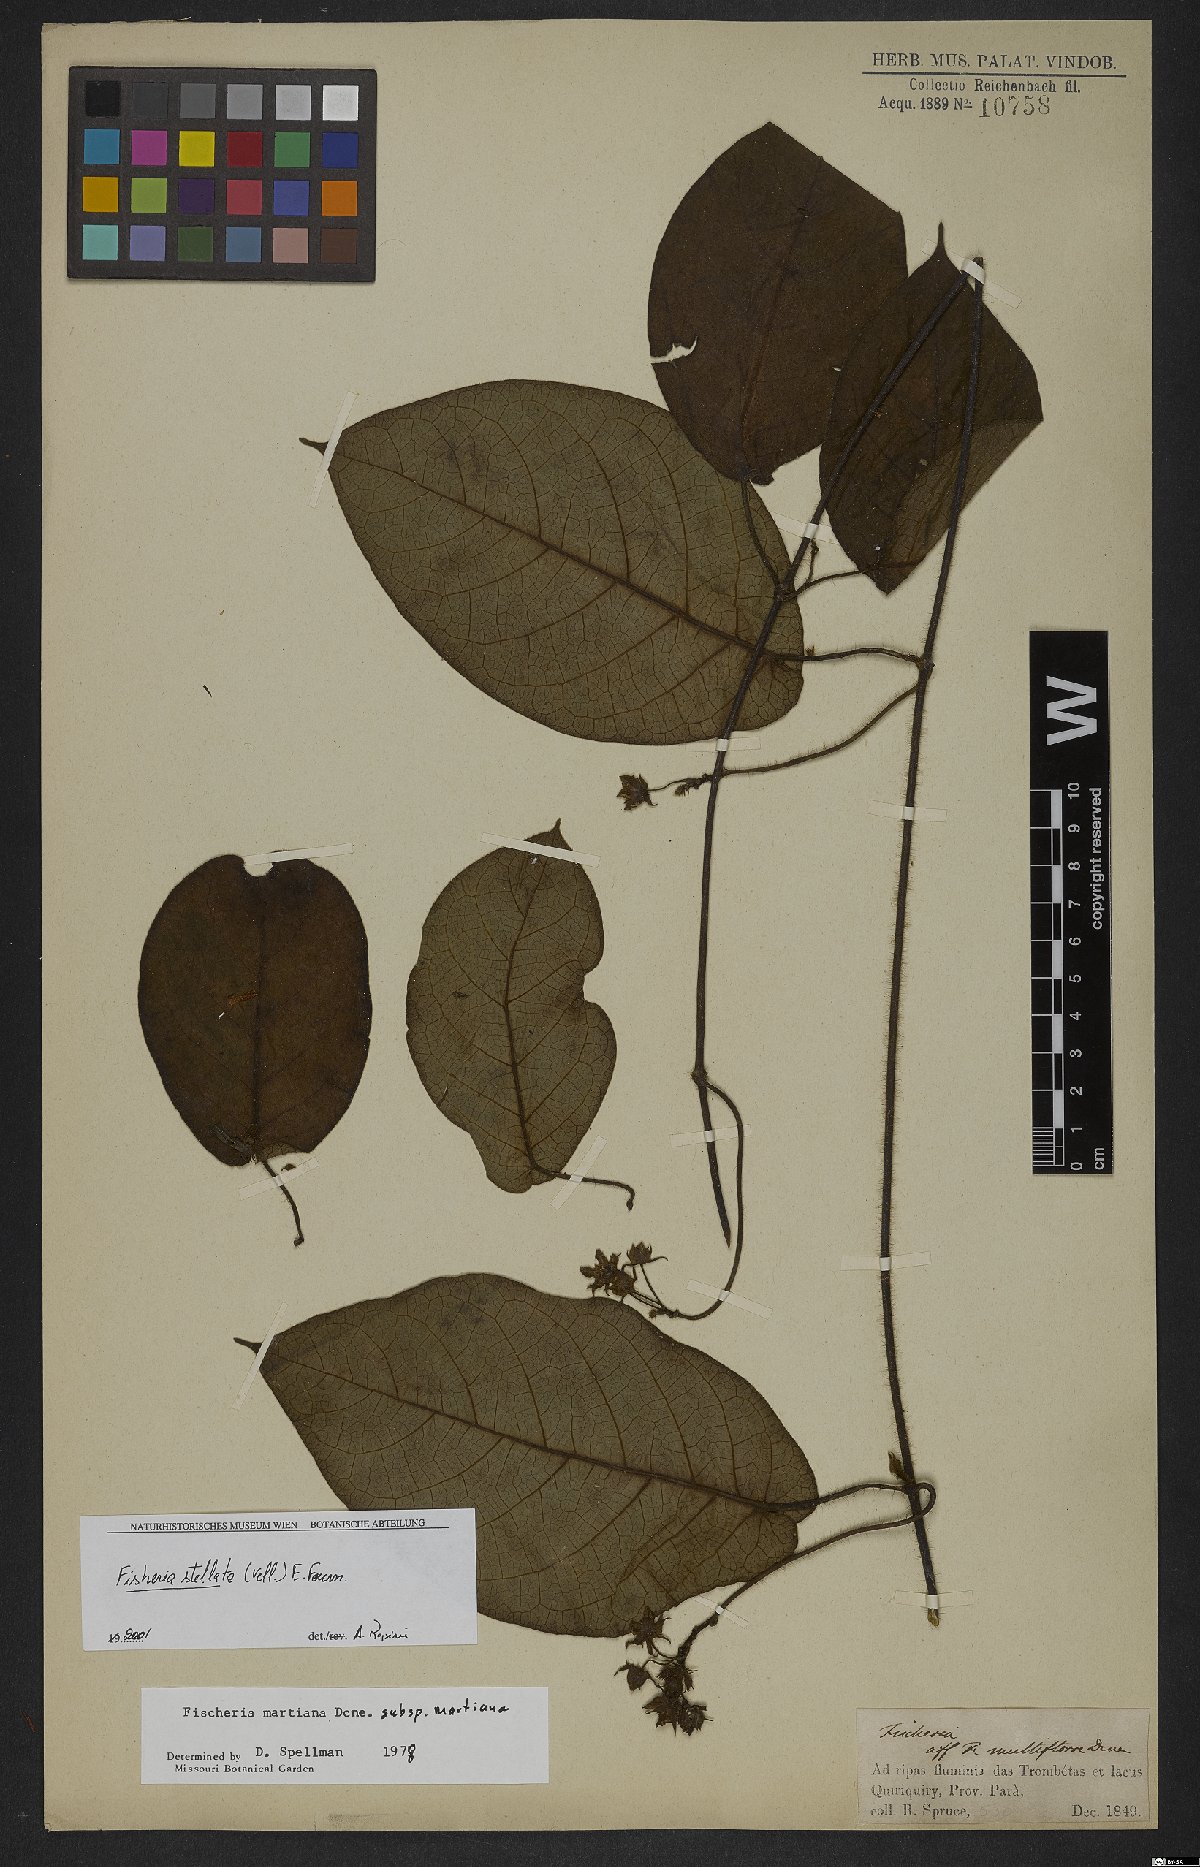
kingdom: Plantae
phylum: Tracheophyta
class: Magnoliopsida
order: Gentianales
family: Apocynaceae
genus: Fischeria
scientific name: Fischeria stellata
